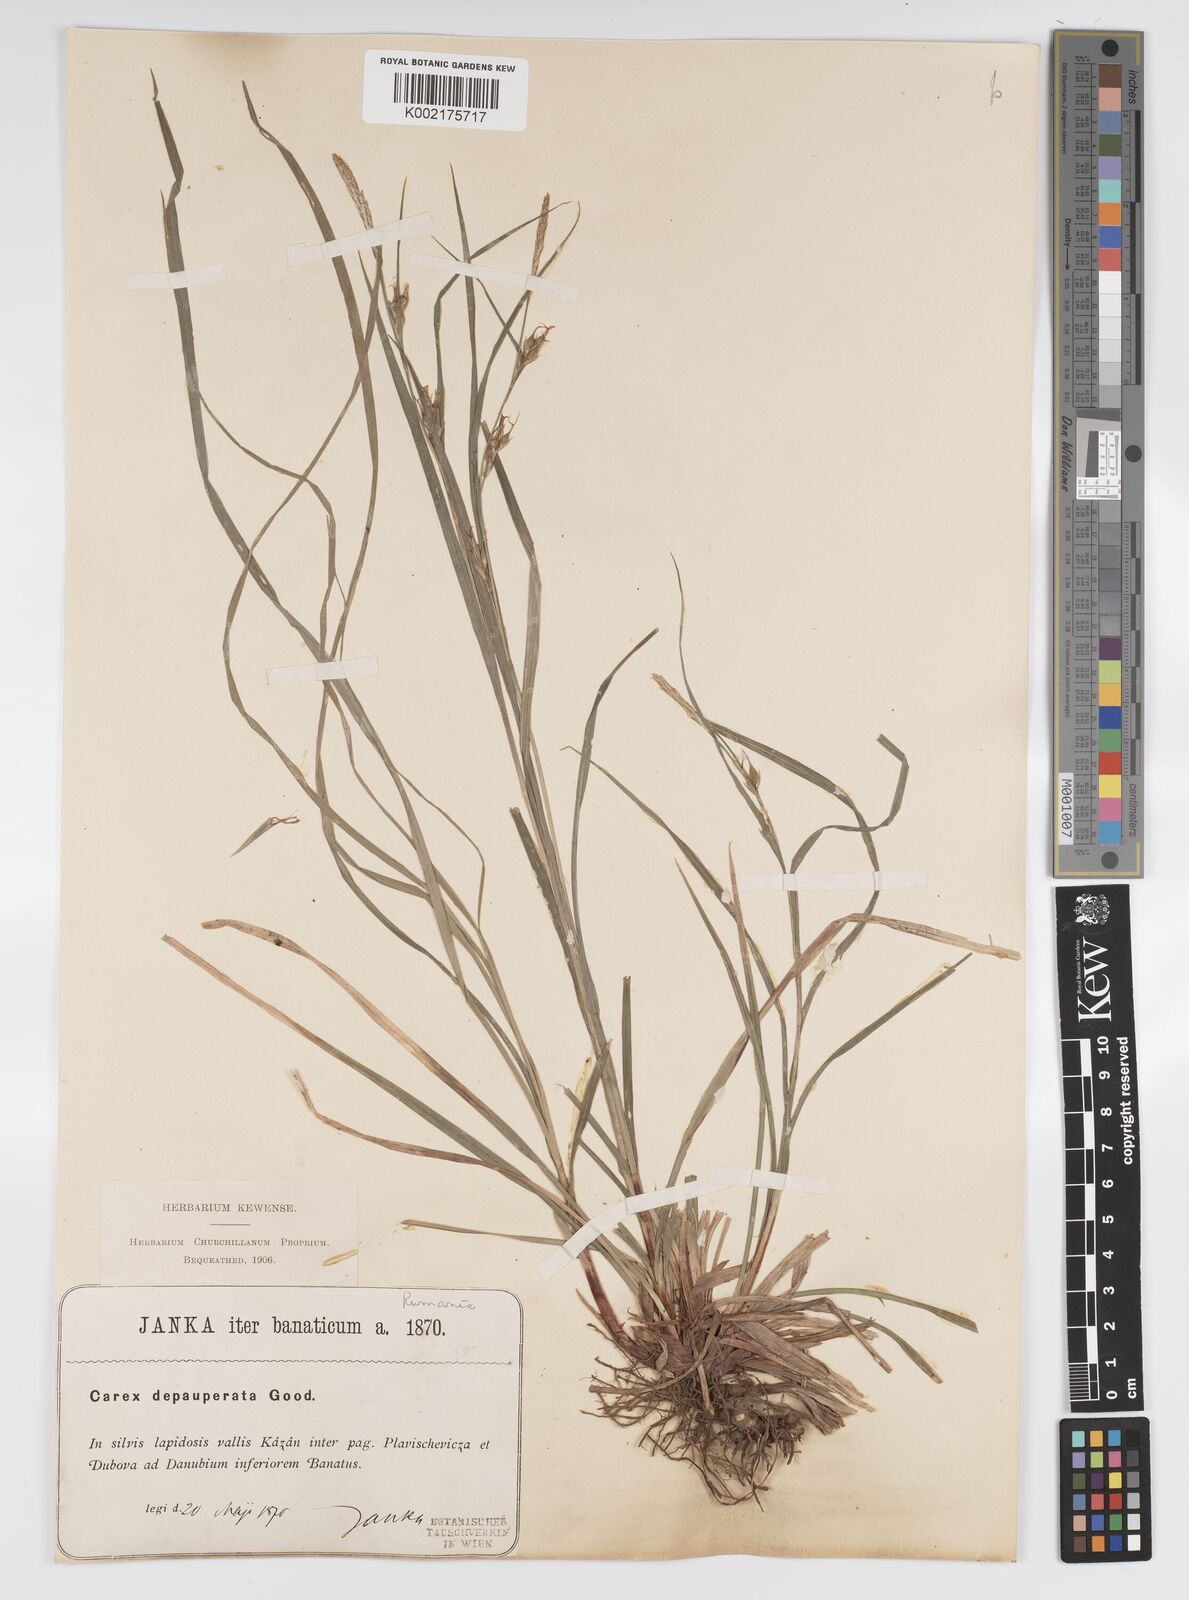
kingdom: Plantae
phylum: Tracheophyta
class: Liliopsida
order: Poales
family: Cyperaceae
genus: Carex
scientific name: Carex
